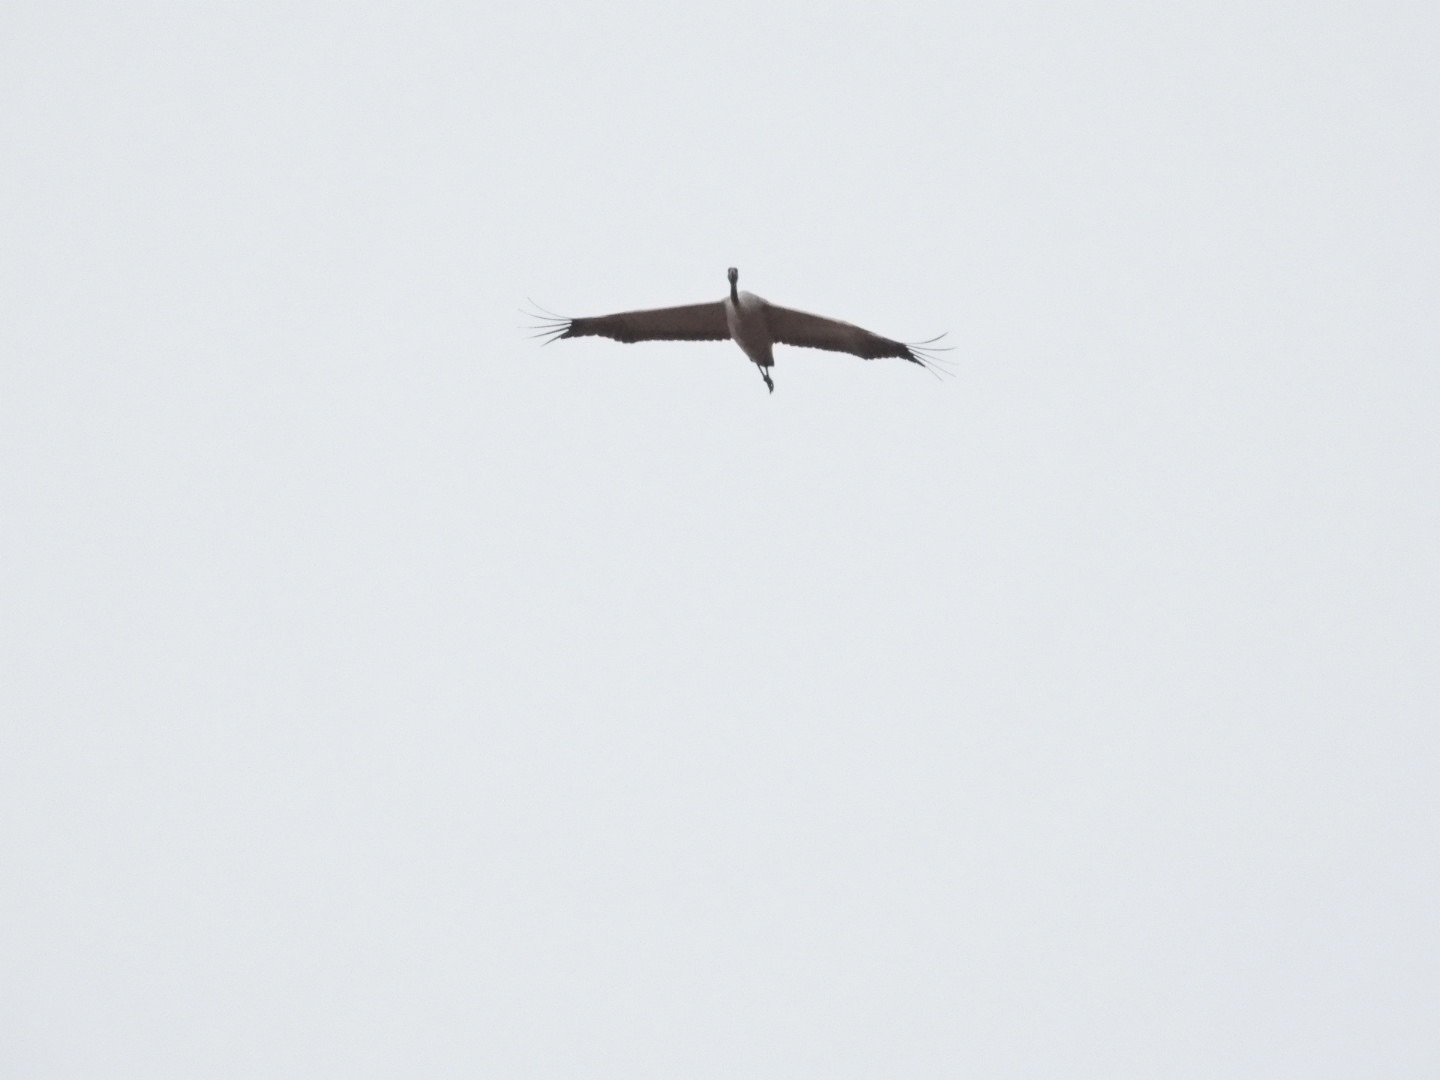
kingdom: Animalia
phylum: Chordata
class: Aves
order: Gruiformes
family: Gruidae
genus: Grus
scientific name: Grus grus
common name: Trane
